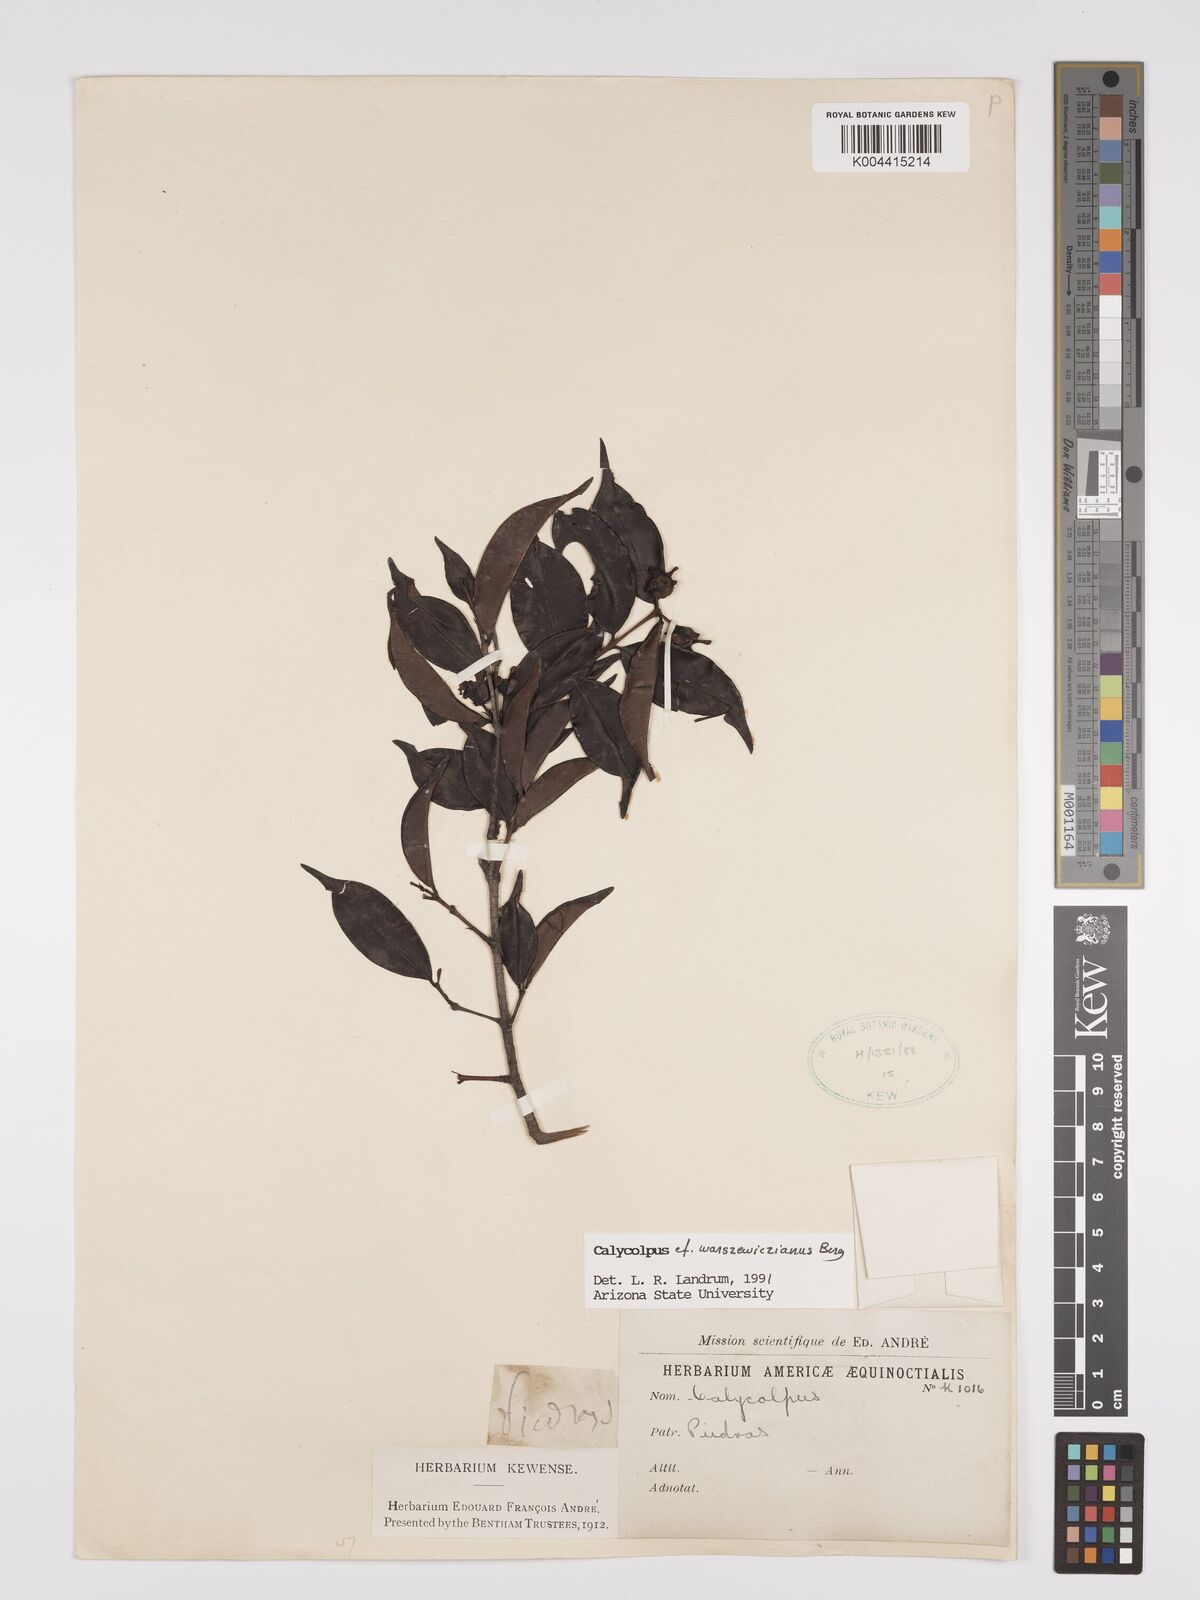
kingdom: Plantae
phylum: Tracheophyta
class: Magnoliopsida
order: Myrtales
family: Myrtaceae
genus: Calycolpus
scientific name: Calycolpus warszewiczianus
